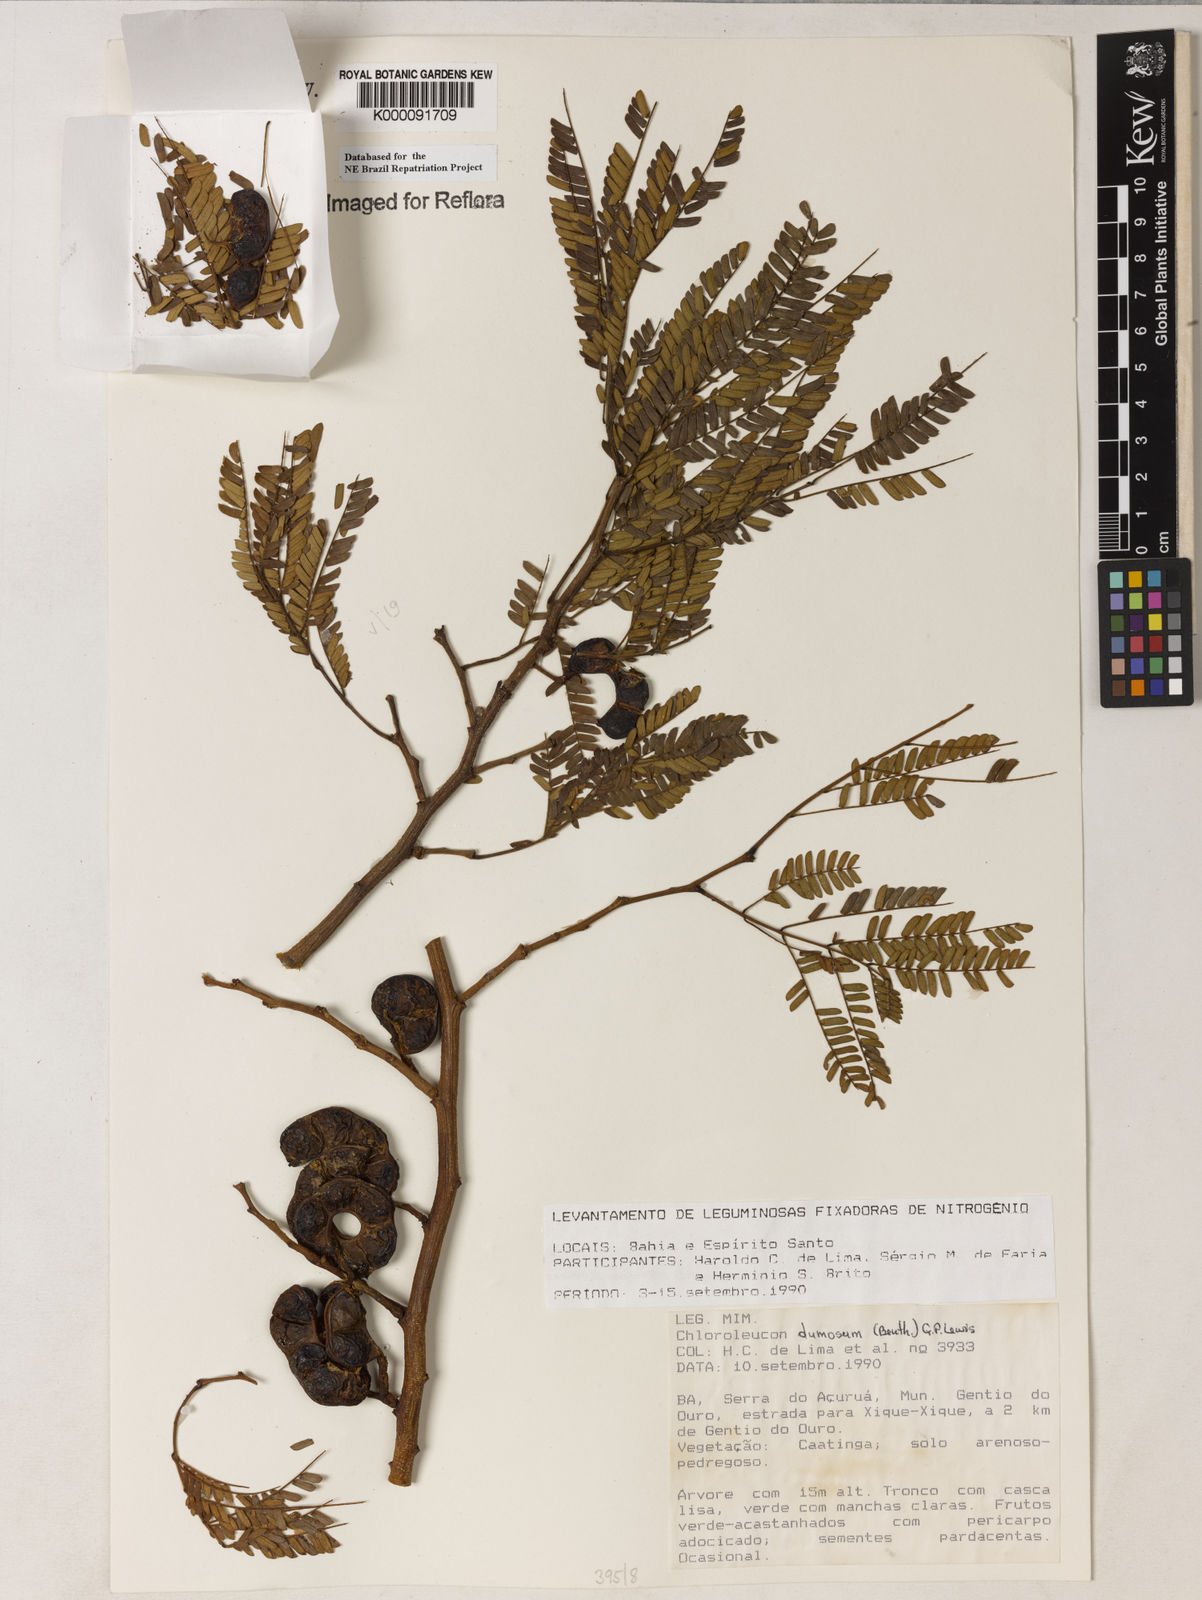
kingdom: Plantae
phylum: Tracheophyta
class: Magnoliopsida
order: Fabales
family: Fabaceae
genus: Chloroleucon
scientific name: Chloroleucon dumosum
